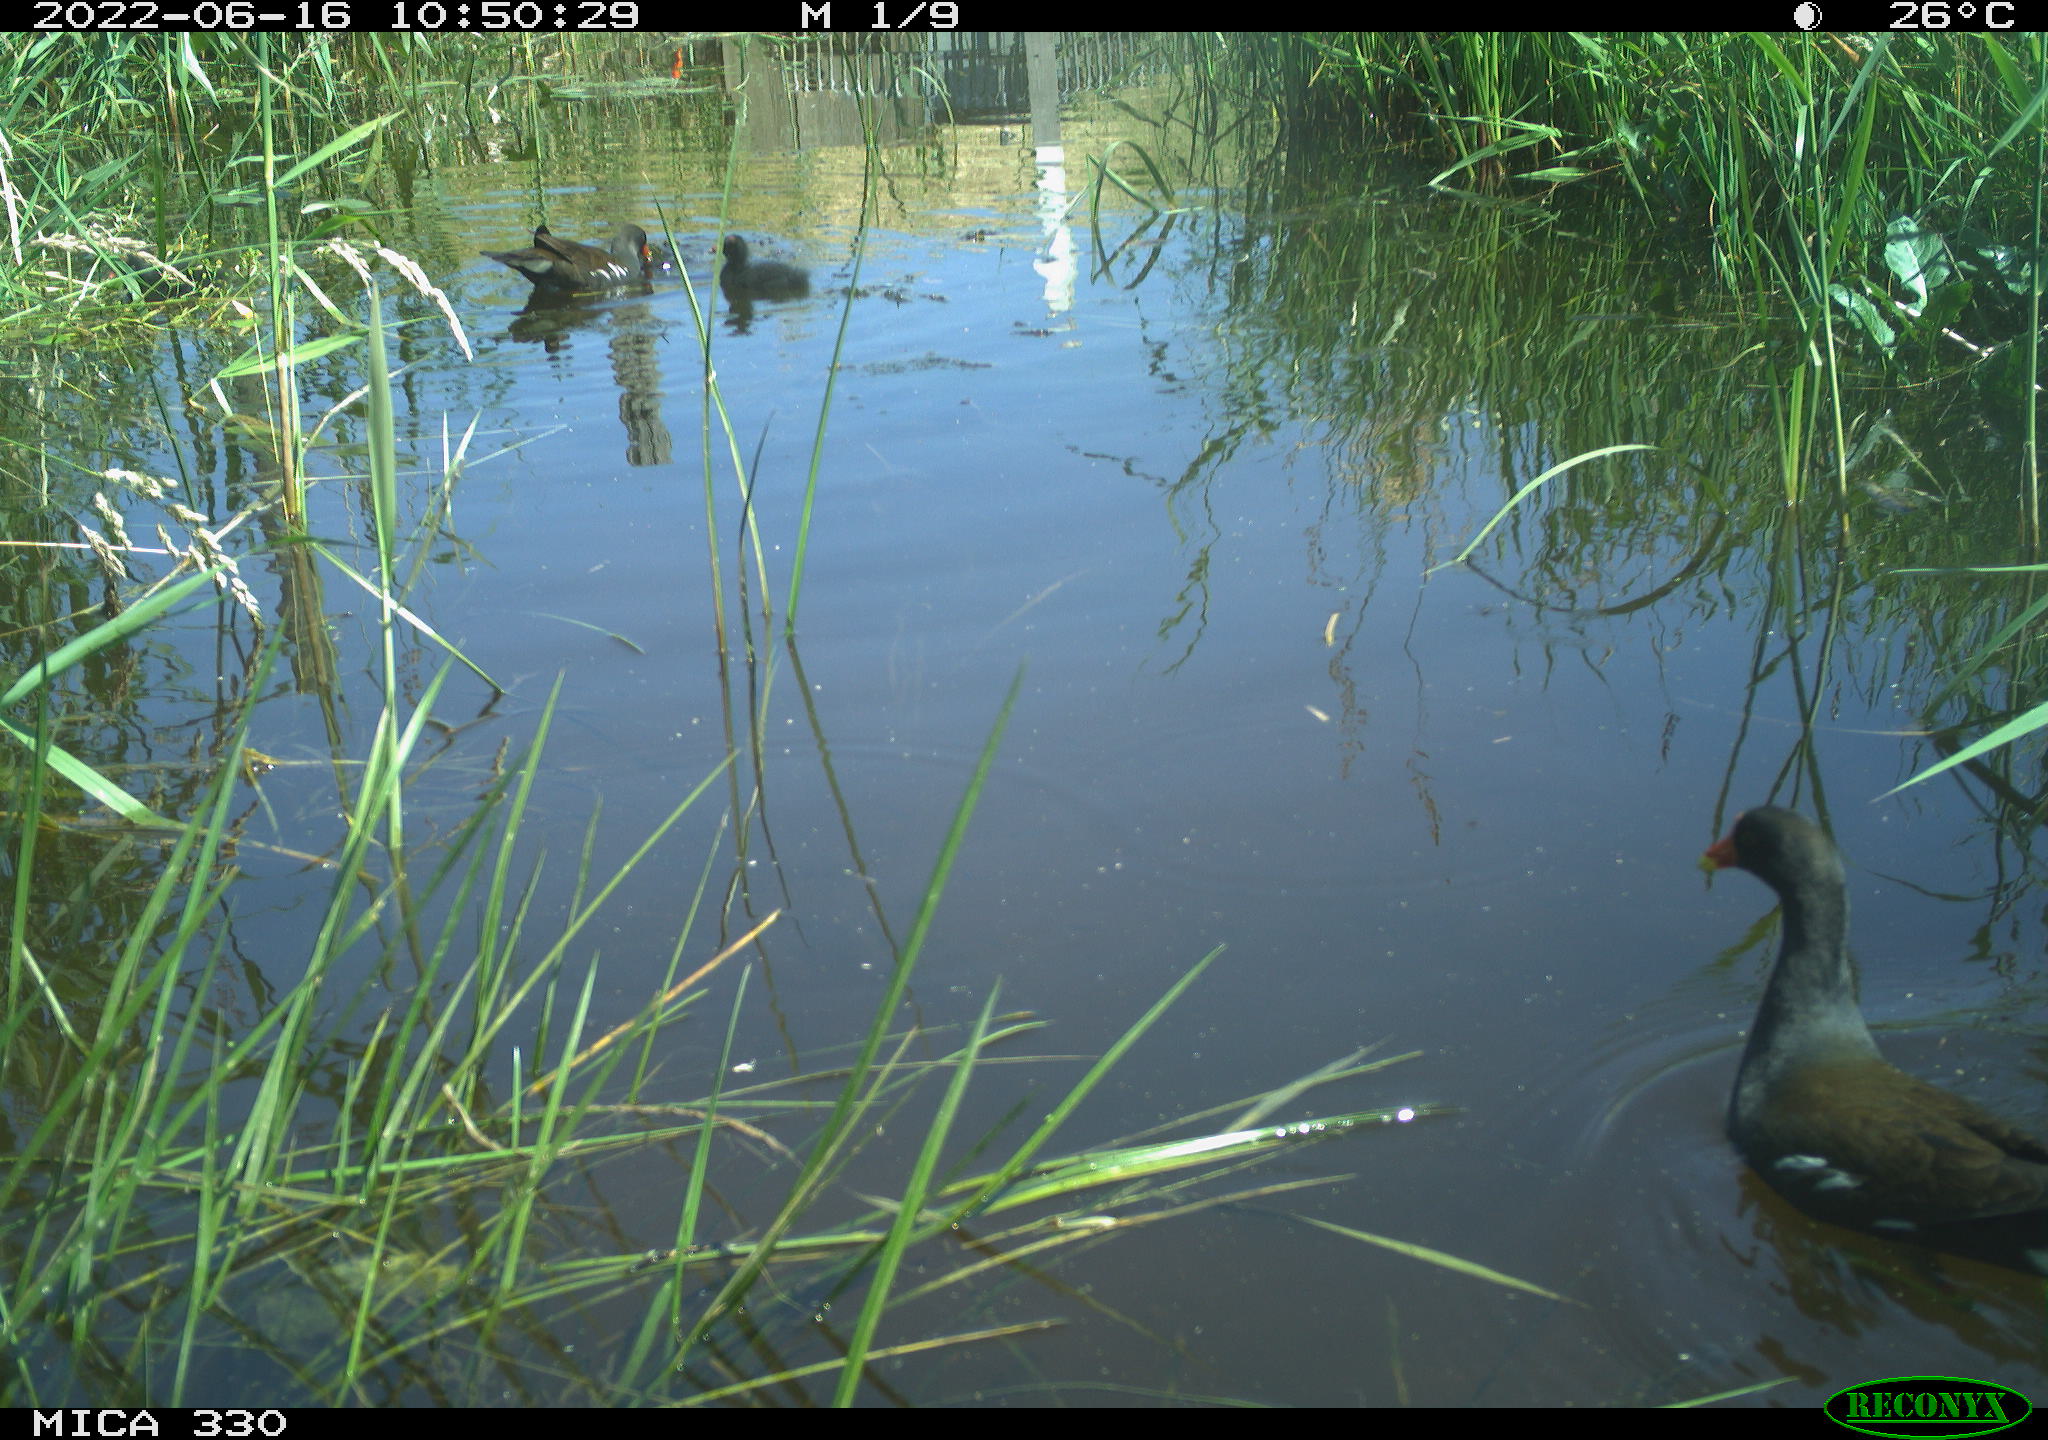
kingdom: Animalia
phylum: Chordata
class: Aves
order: Gruiformes
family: Rallidae
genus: Gallinula
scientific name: Gallinula chloropus
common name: Common moorhen
